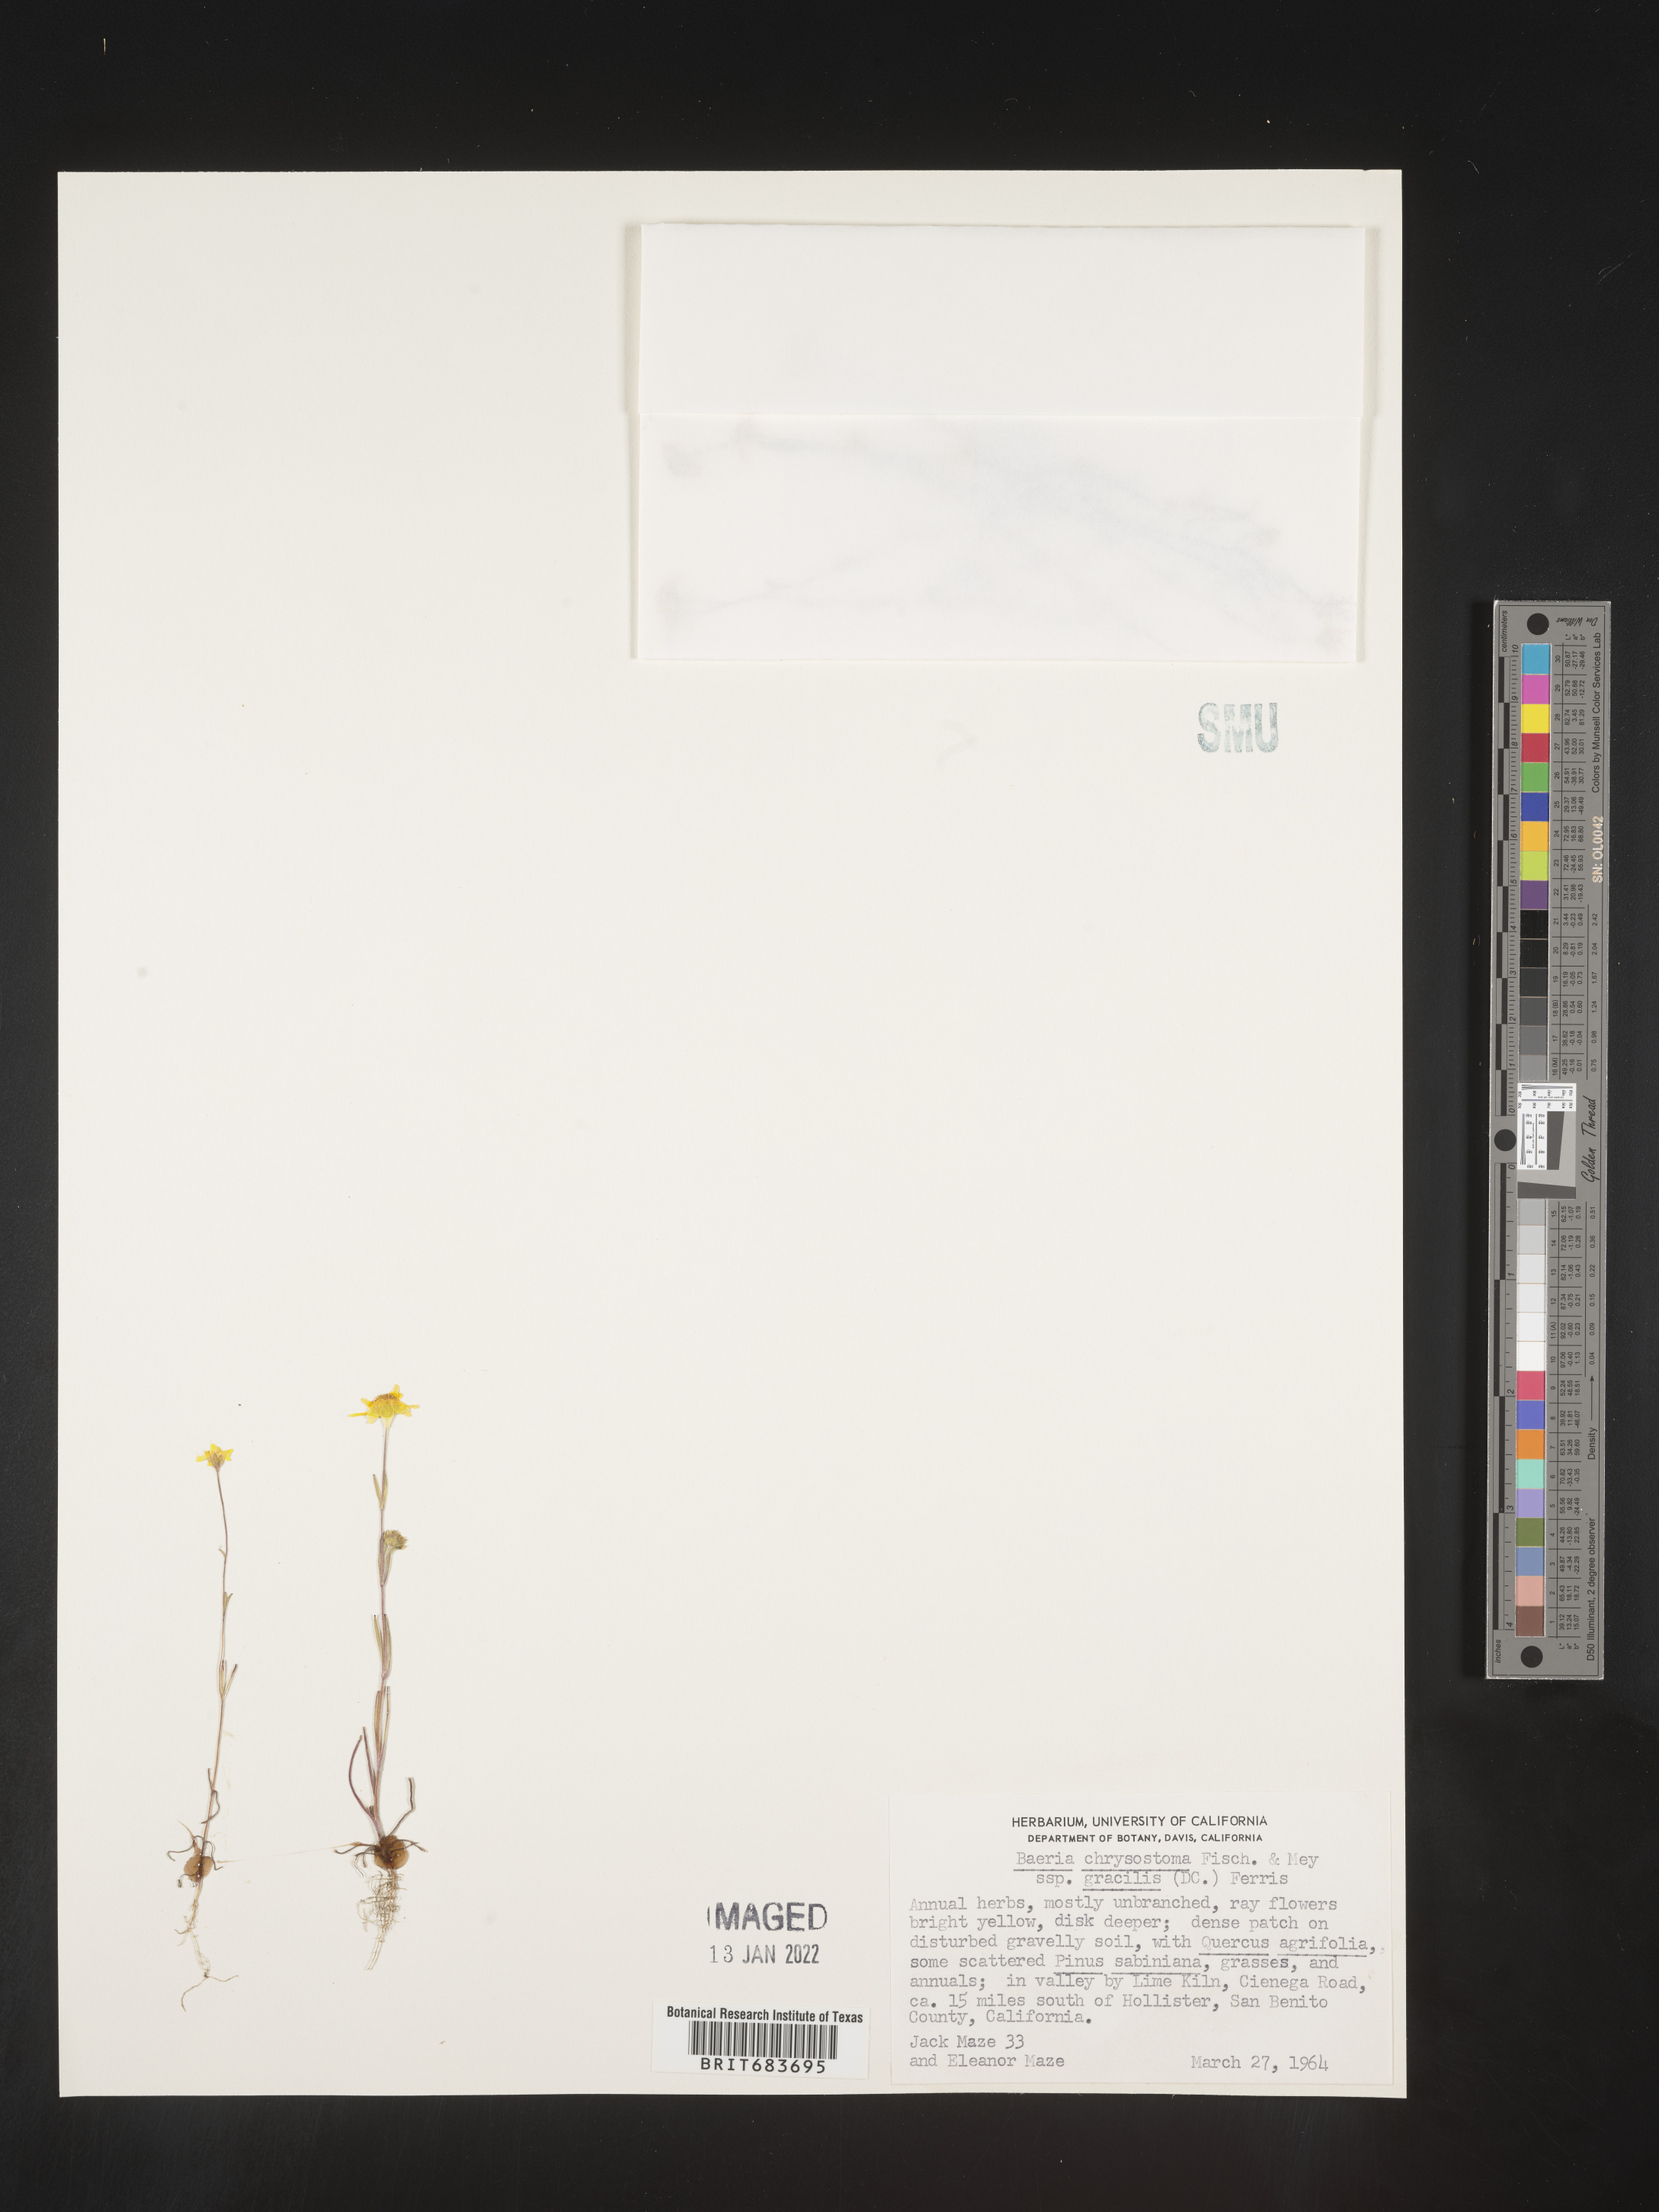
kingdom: Plantae
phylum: Tracheophyta
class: Magnoliopsida
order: Asterales
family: Asteraceae
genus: Lasthenia
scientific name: Lasthenia
